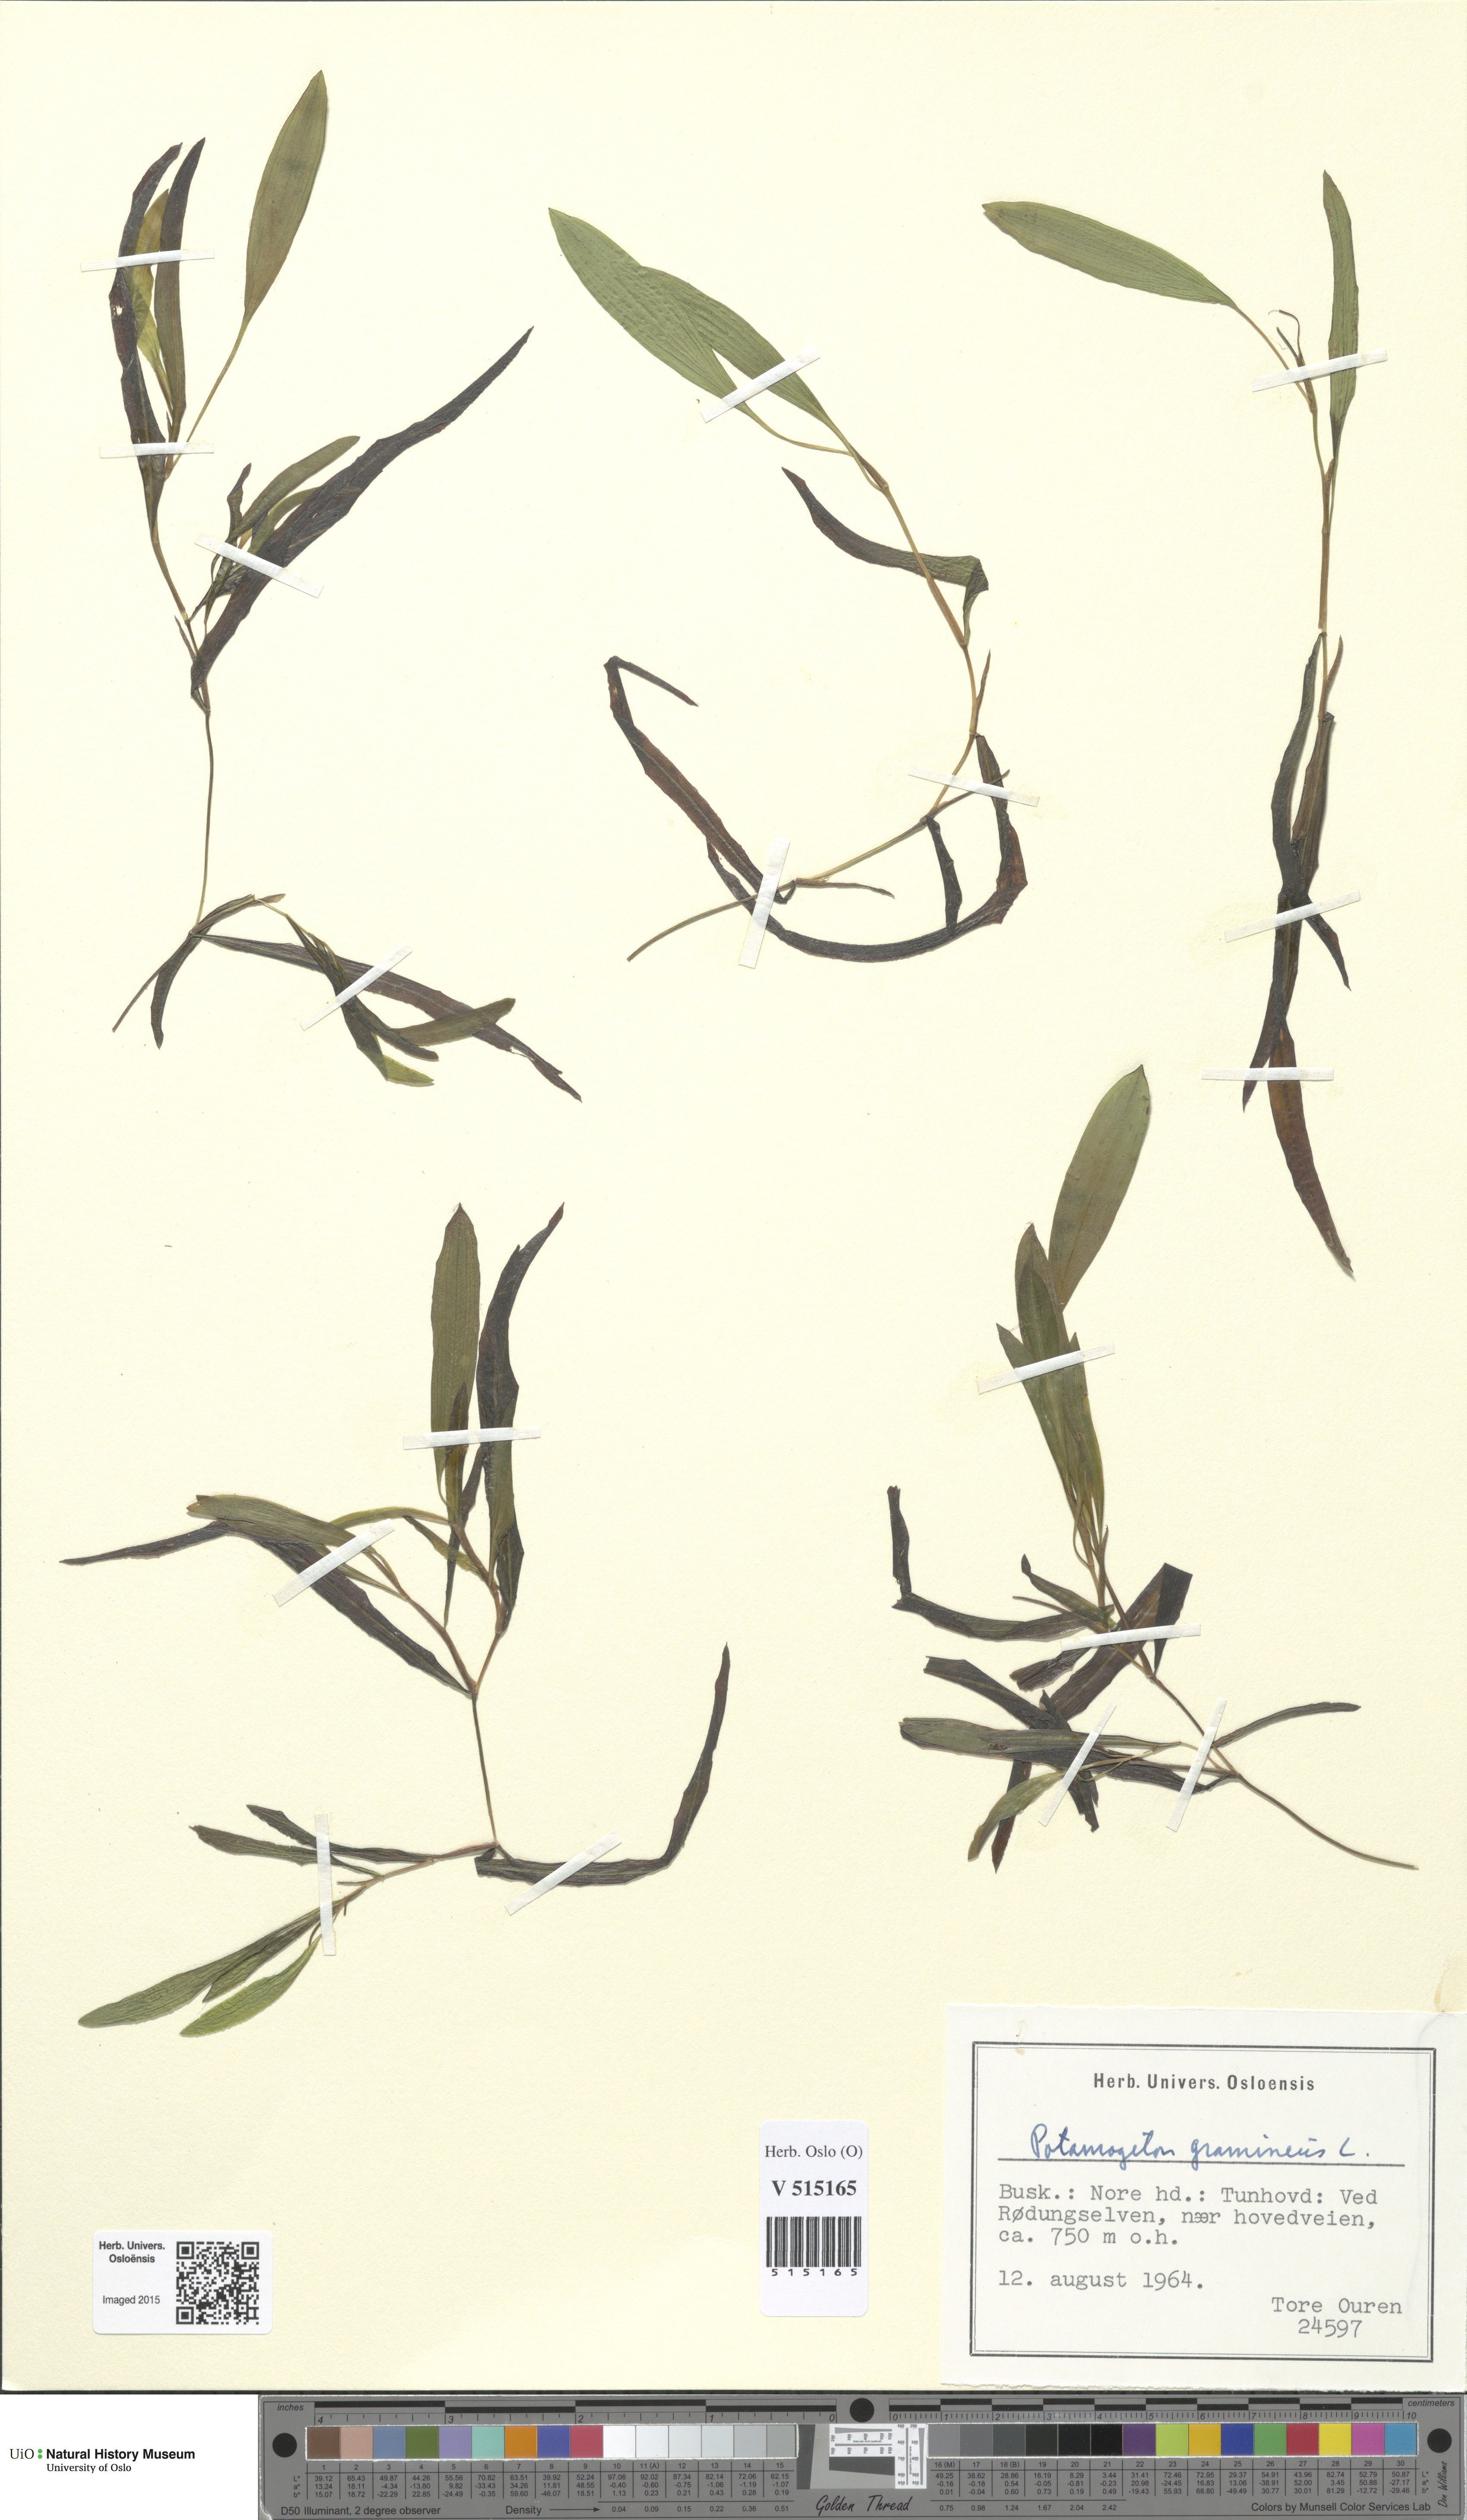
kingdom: Plantae
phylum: Tracheophyta
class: Liliopsida
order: Alismatales
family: Potamogetonaceae
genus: Potamogeton
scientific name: Potamogeton gramineus
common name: Various-leaved pondweed
